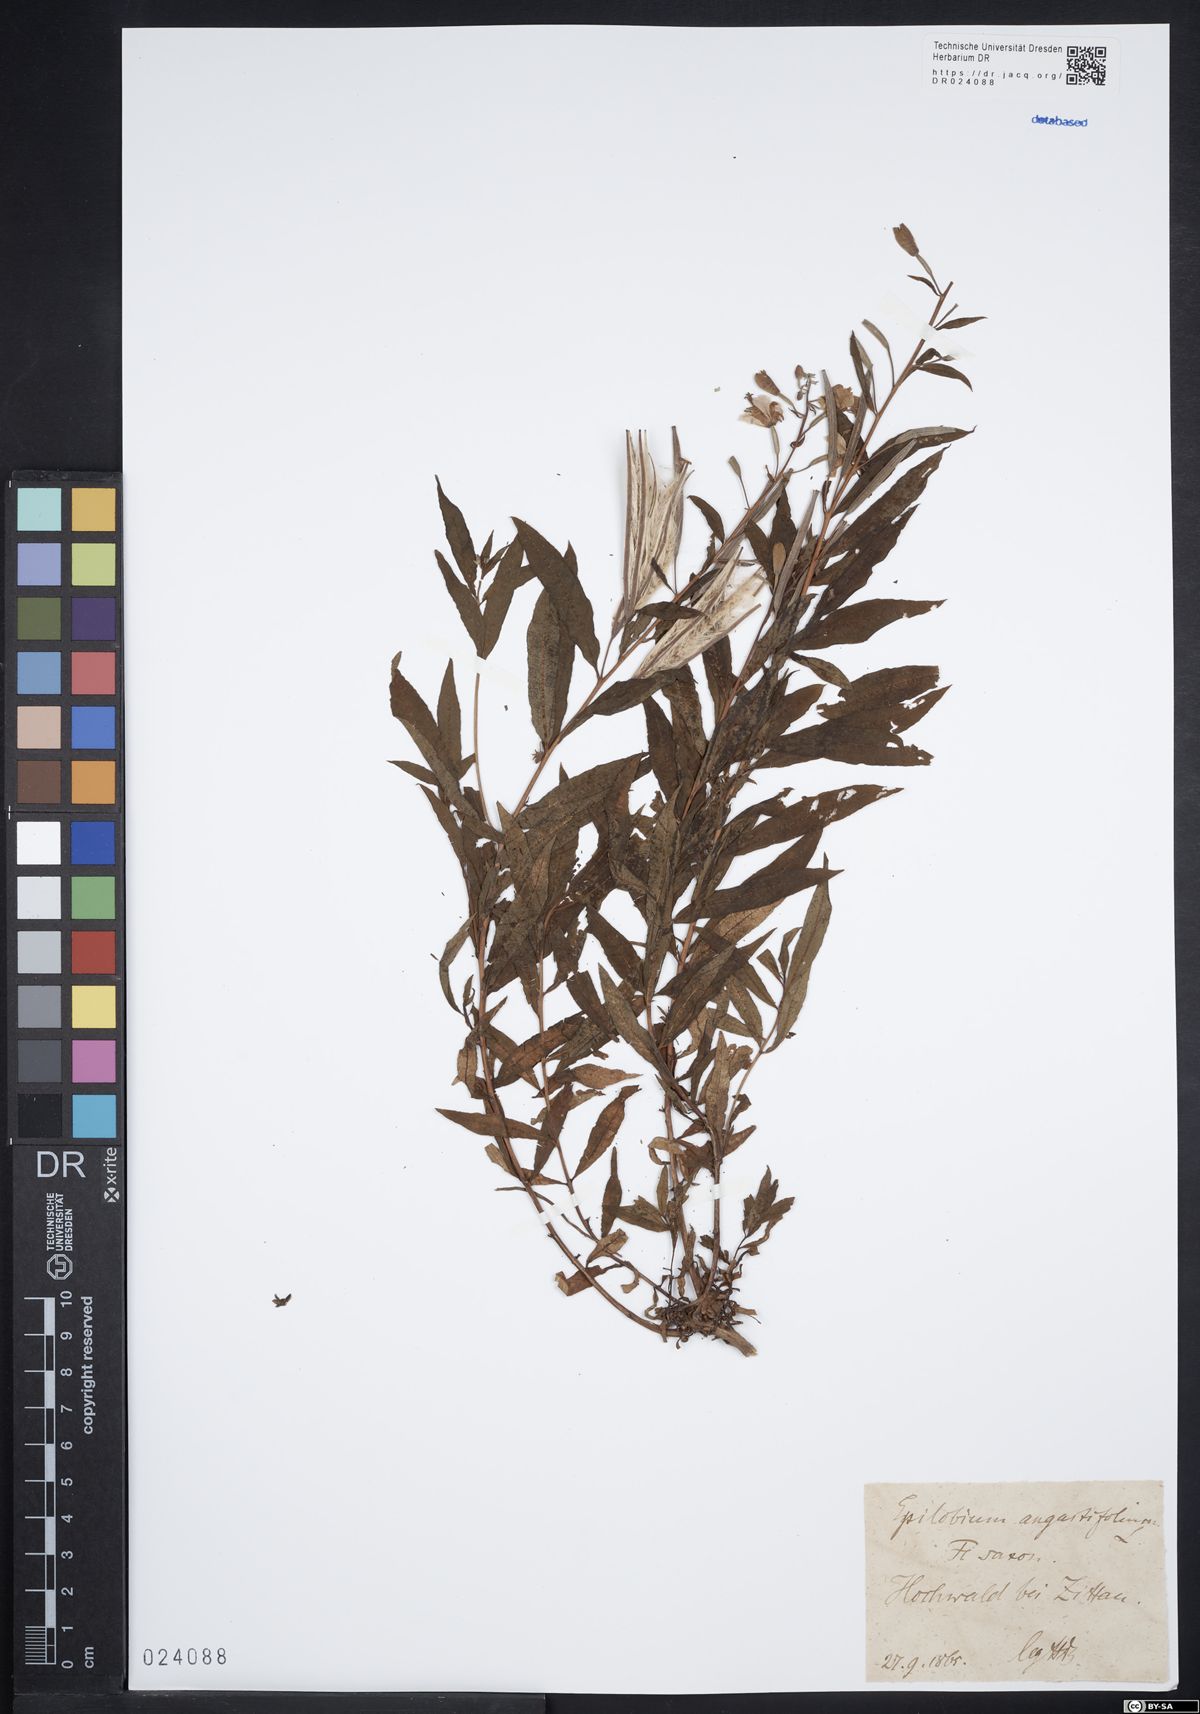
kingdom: Plantae
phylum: Tracheophyta
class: Magnoliopsida
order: Myrtales
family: Onagraceae
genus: Chamaenerion
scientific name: Chamaenerion angustifolium
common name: Fireweed
